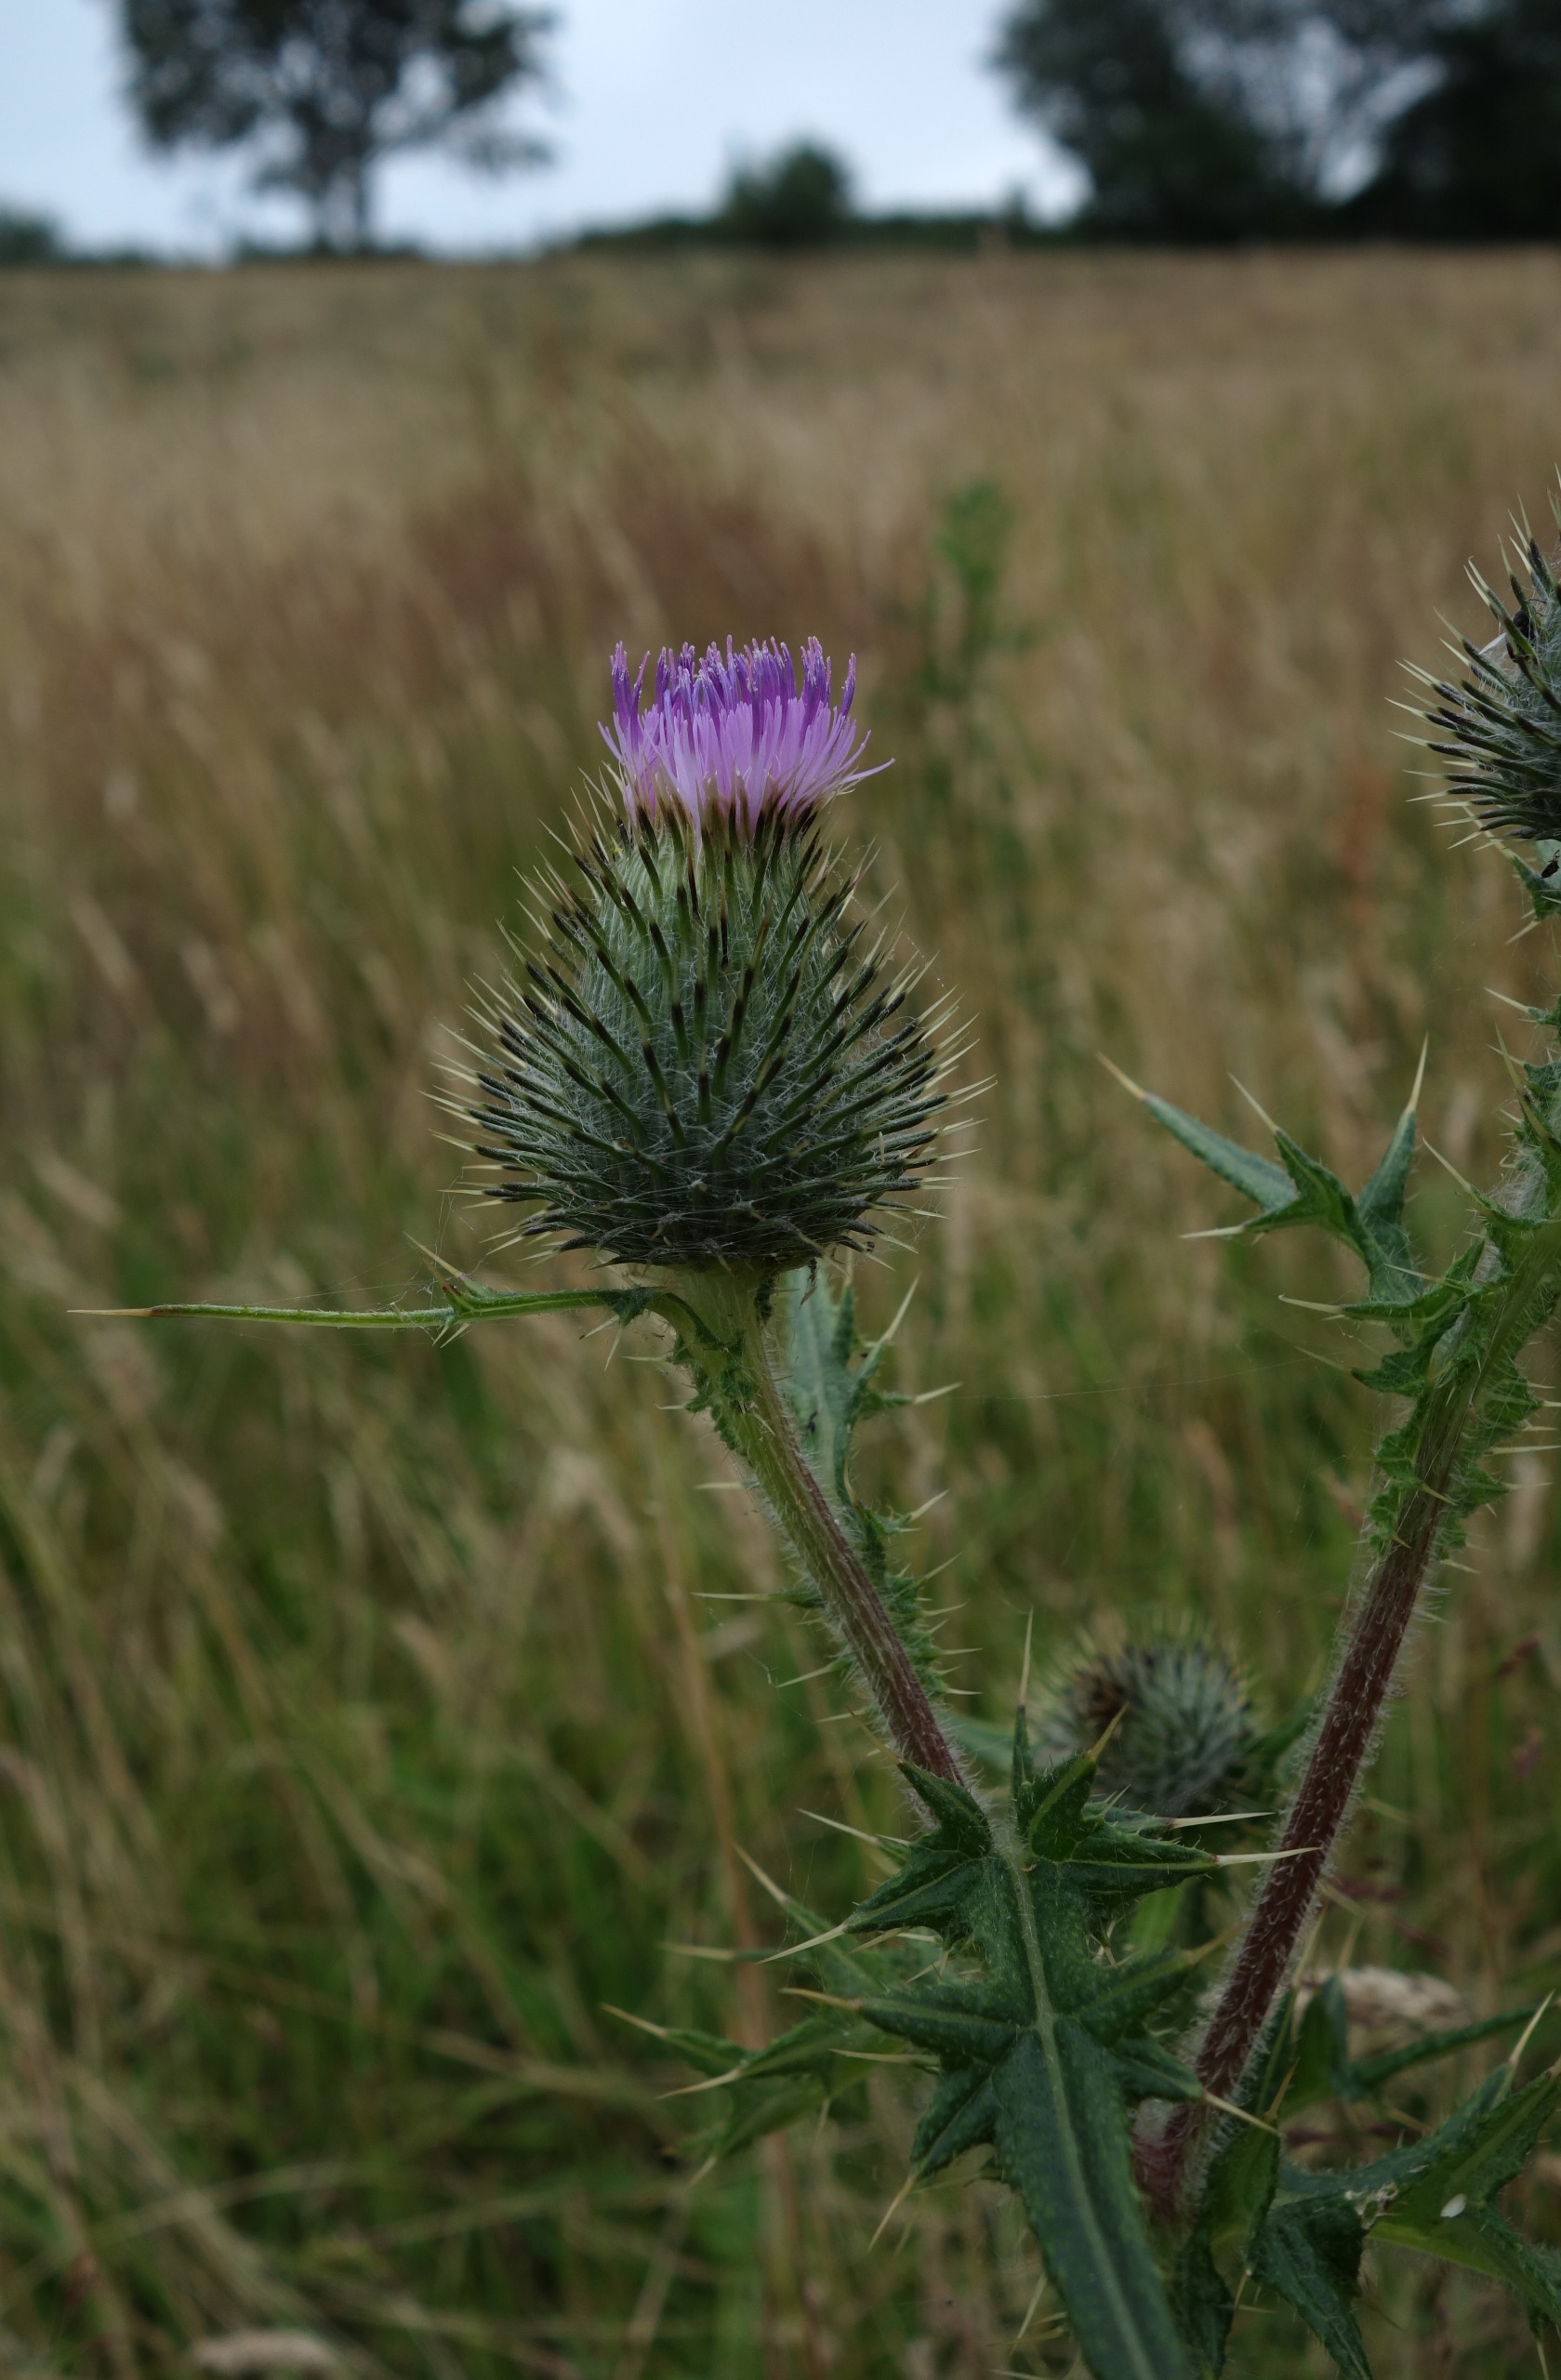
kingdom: Plantae
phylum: Tracheophyta
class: Magnoliopsida
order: Asterales
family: Asteraceae
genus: Cirsium
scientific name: Cirsium vulgare
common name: Horse-tidsel
